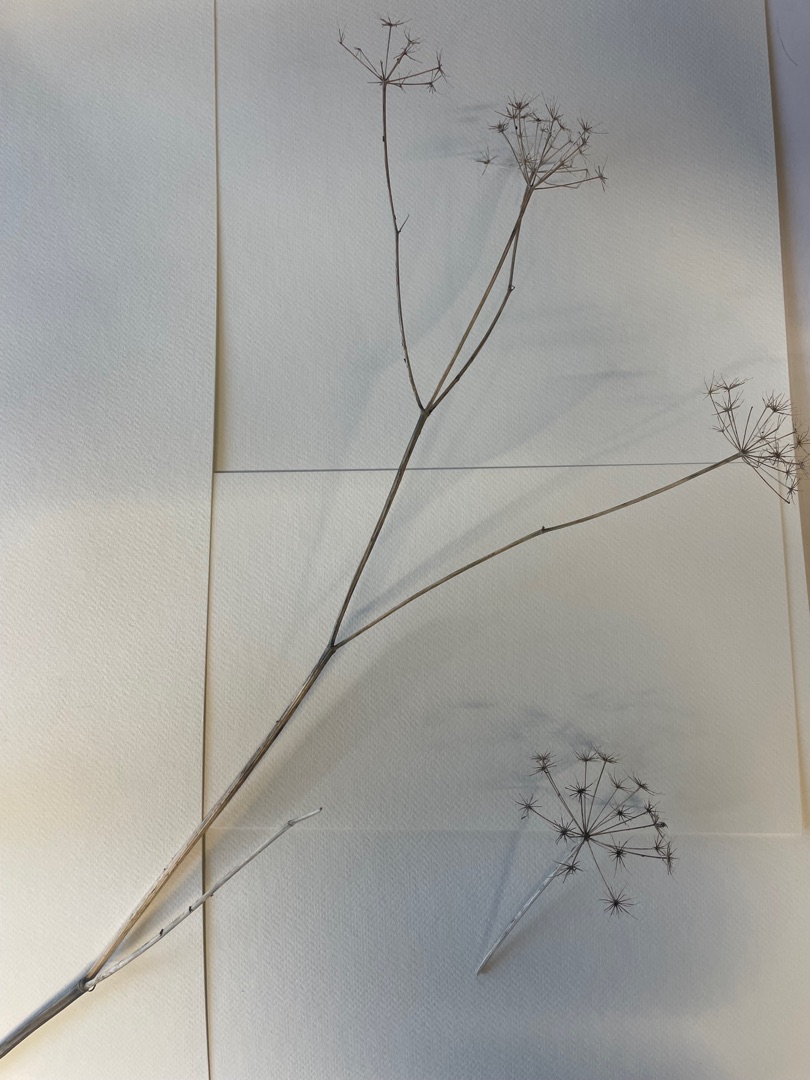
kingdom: Plantae
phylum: Tracheophyta
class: Magnoliopsida
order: Apiales
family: Apiaceae
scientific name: Apiaceae
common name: Skærmplantefamilien
